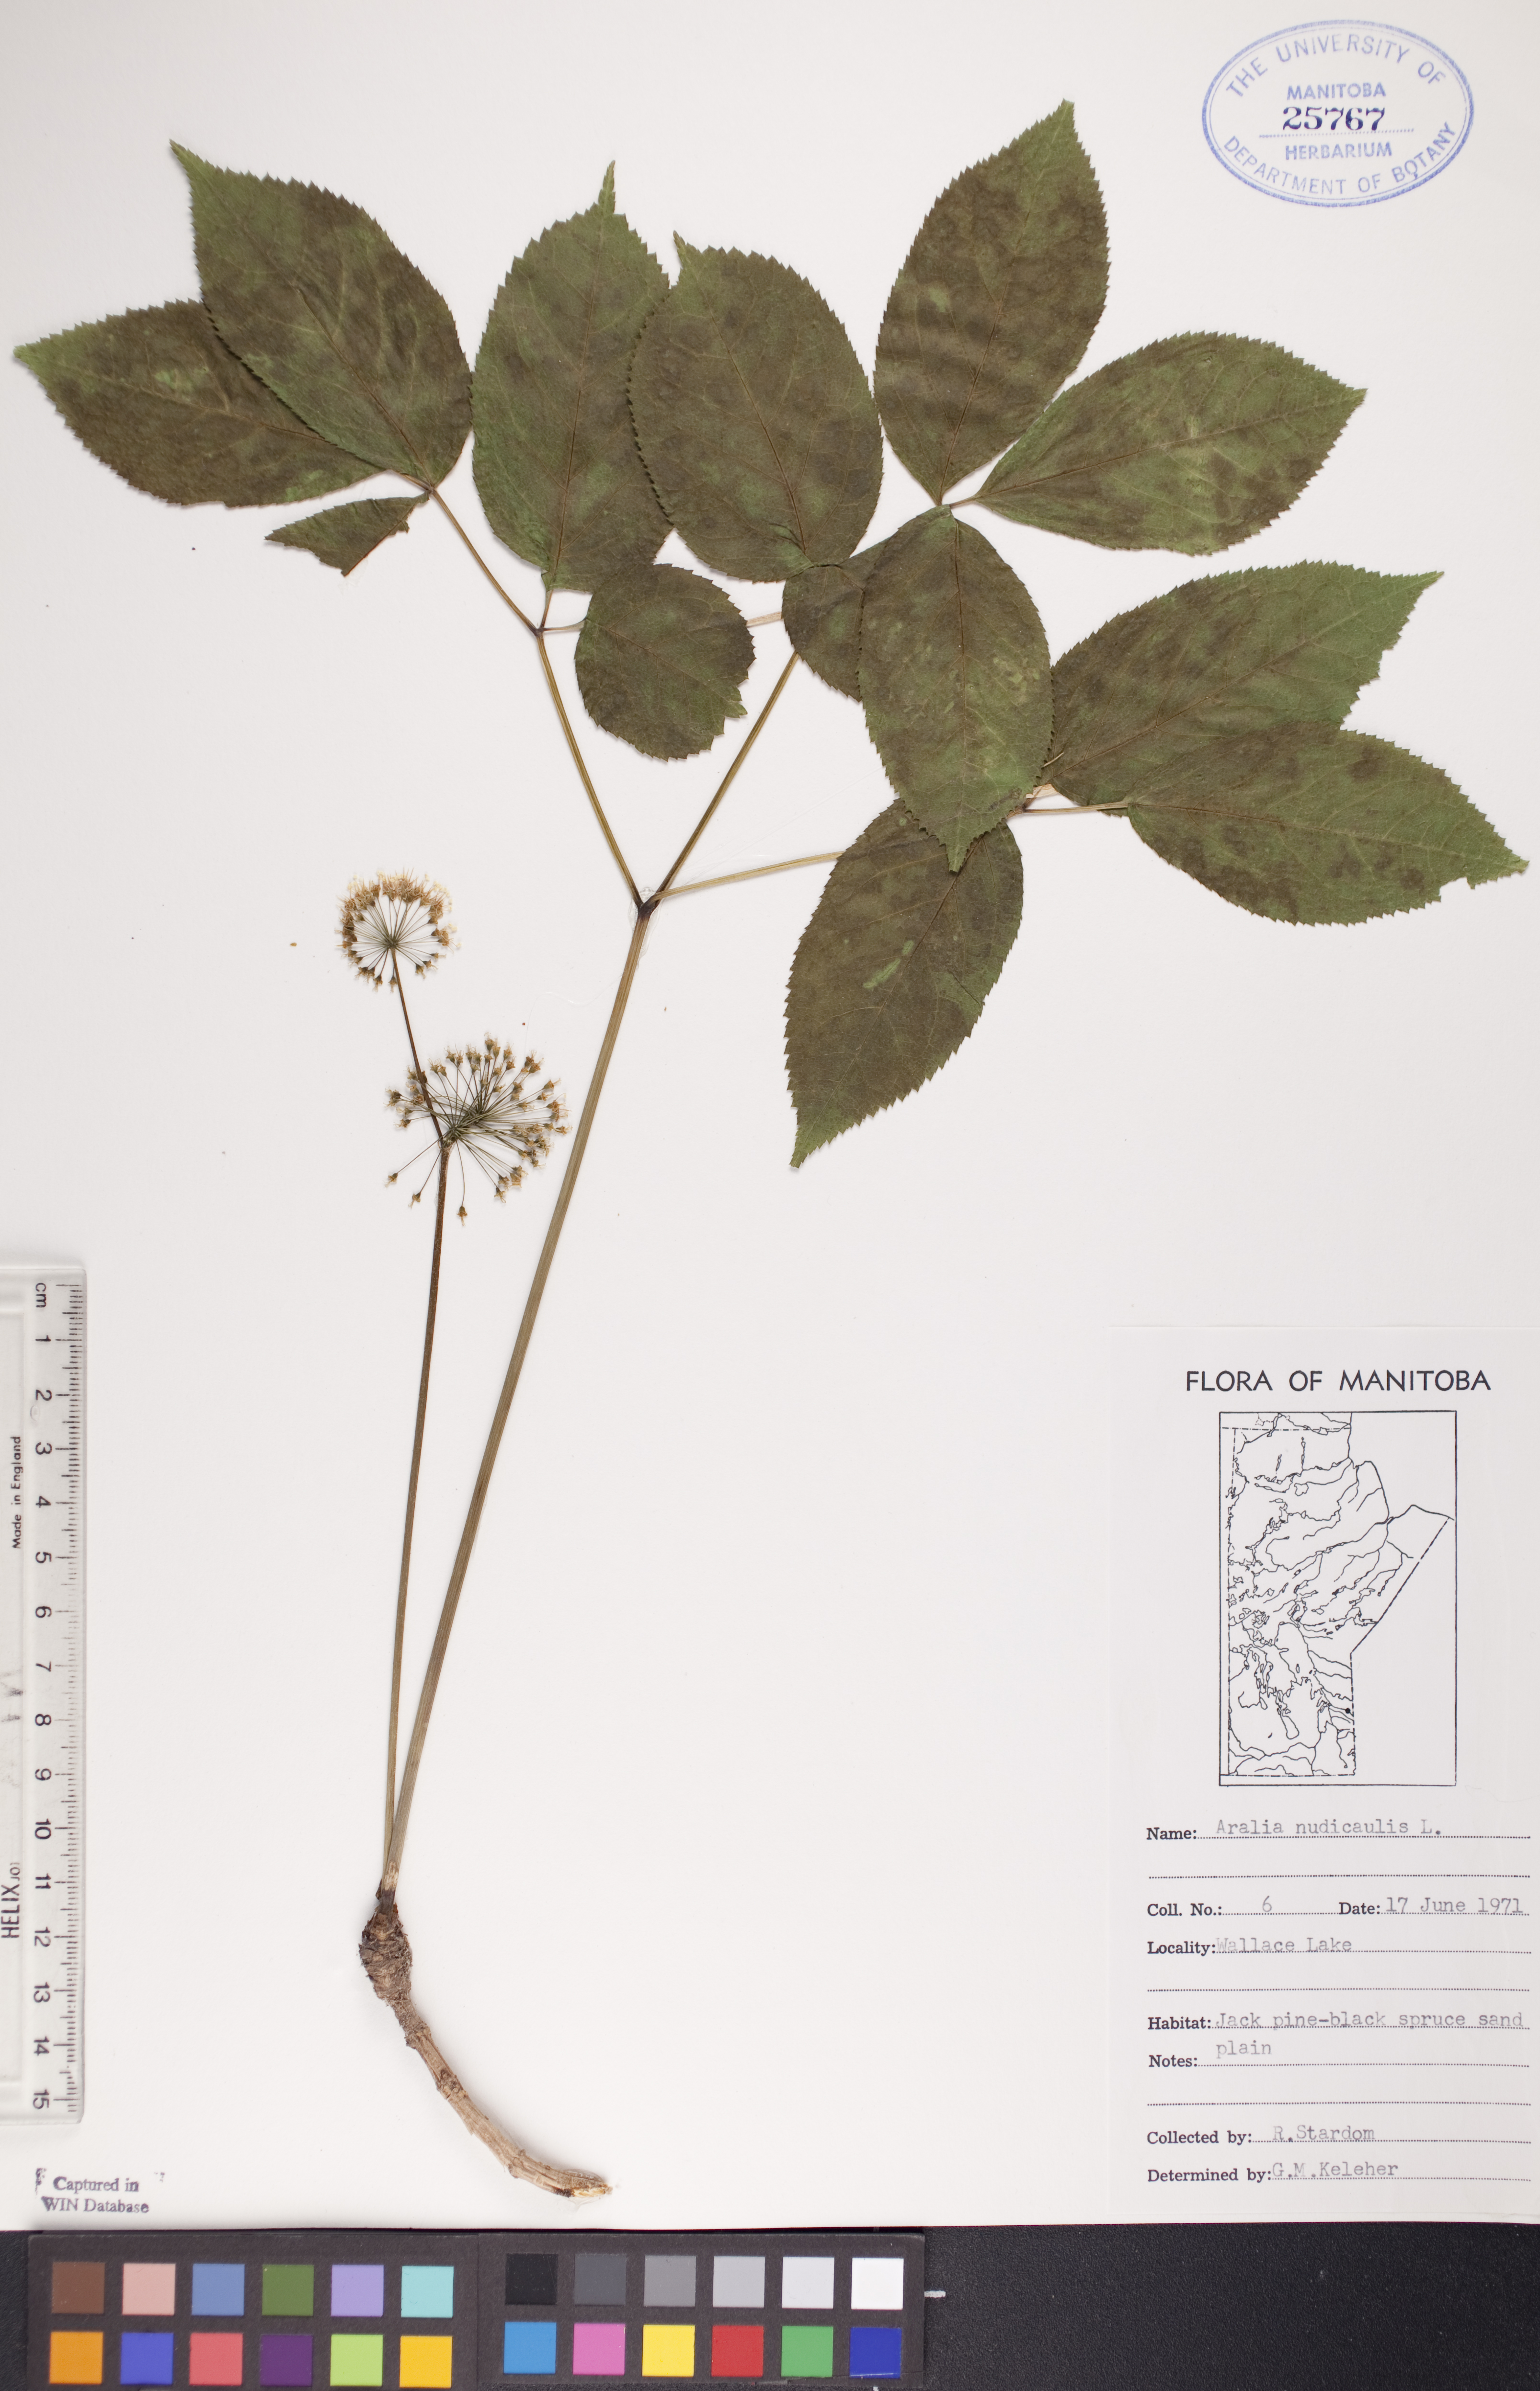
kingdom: Plantae
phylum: Tracheophyta
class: Magnoliopsida
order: Apiales
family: Araliaceae
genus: Aralia
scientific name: Aralia nudicaulis
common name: Wild sarsaparilla
